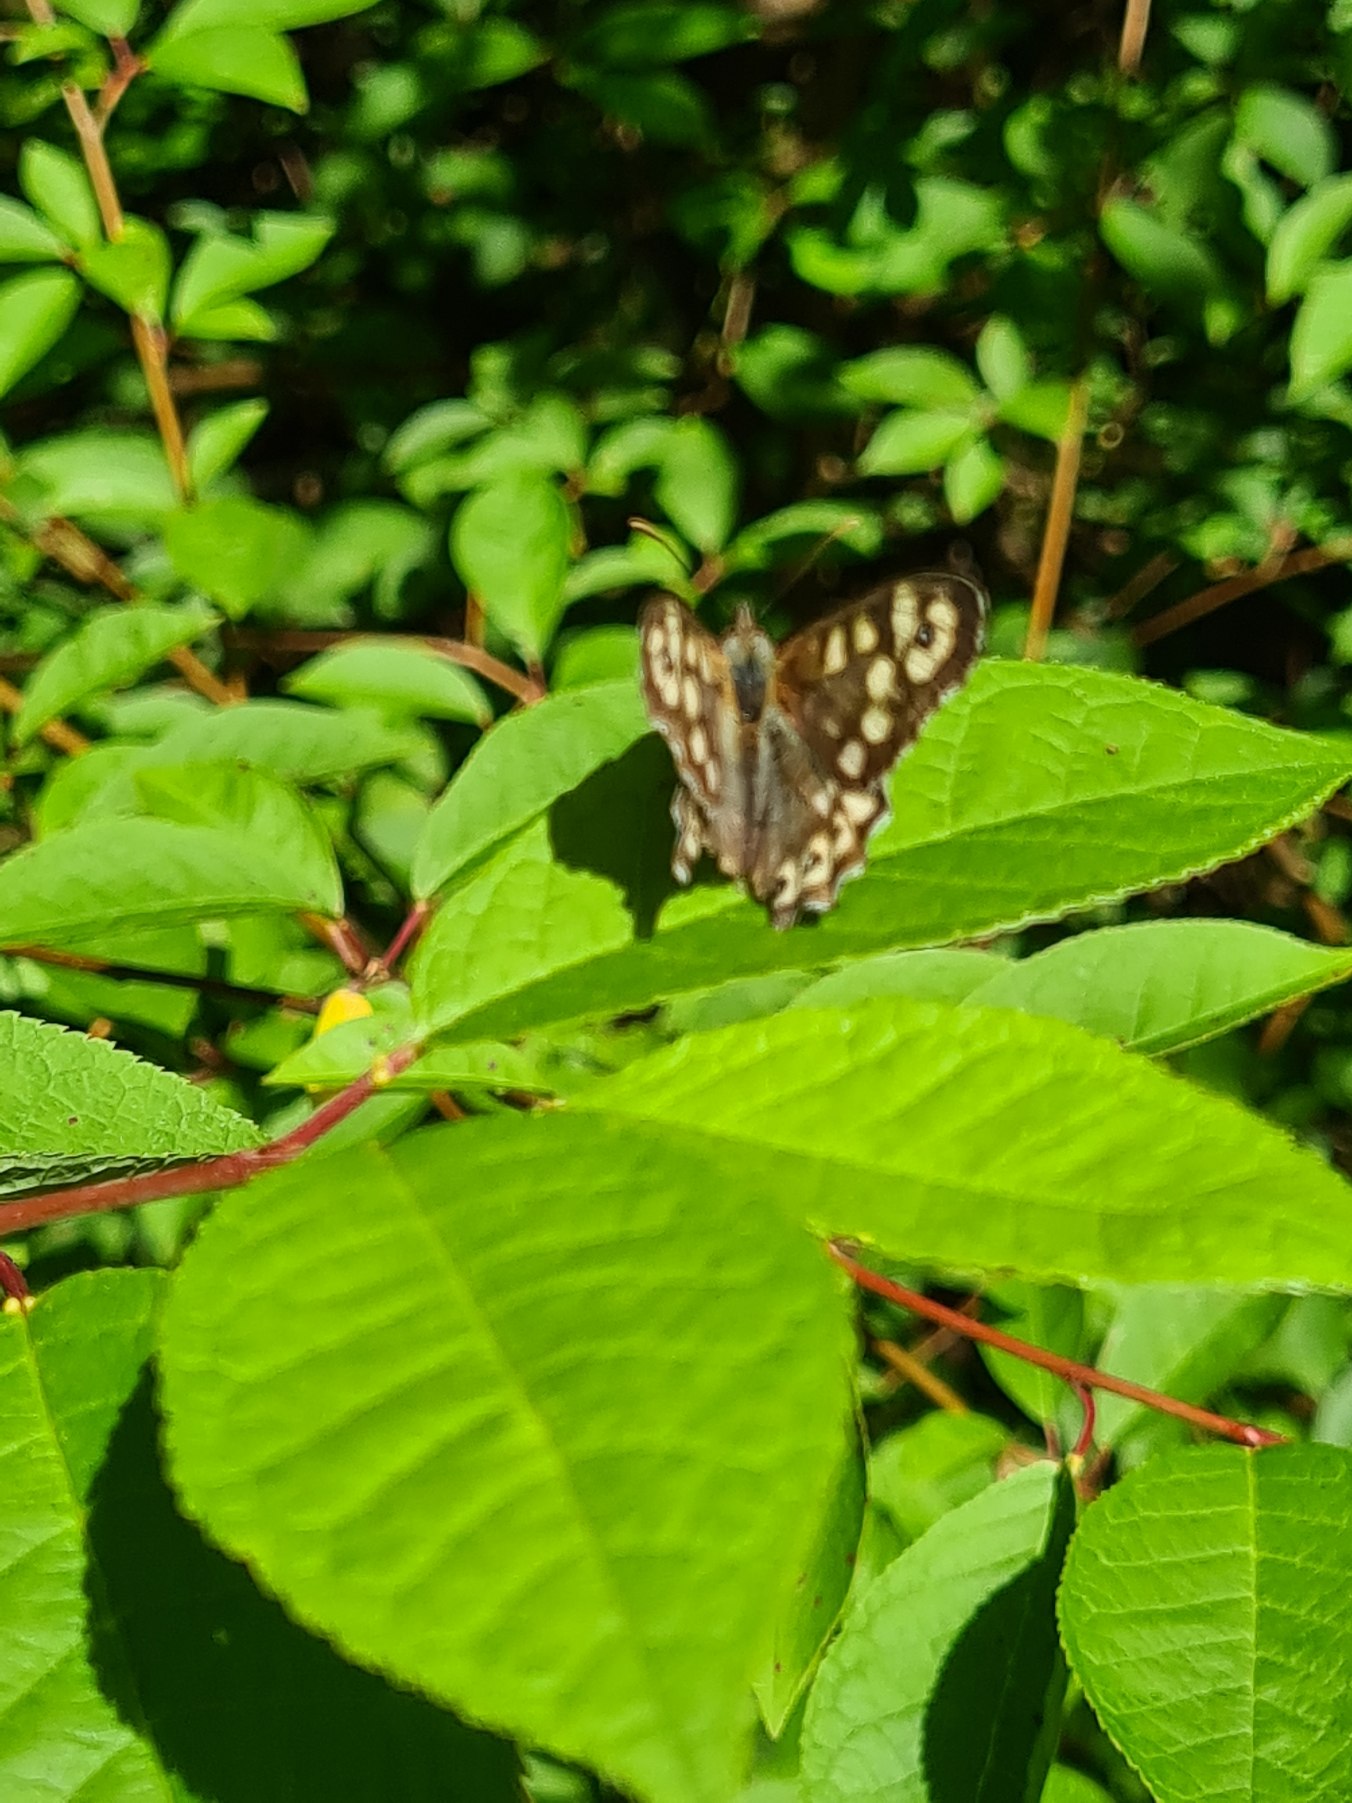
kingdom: Animalia
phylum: Arthropoda
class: Insecta
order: Lepidoptera
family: Nymphalidae
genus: Pararge
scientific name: Pararge aegeria
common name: Skovrandøje
